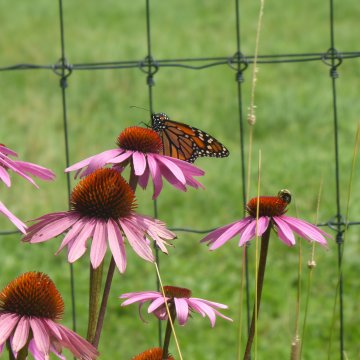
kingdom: Animalia
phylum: Arthropoda
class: Insecta
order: Lepidoptera
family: Nymphalidae
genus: Danaus
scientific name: Danaus plexippus
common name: Monarch
